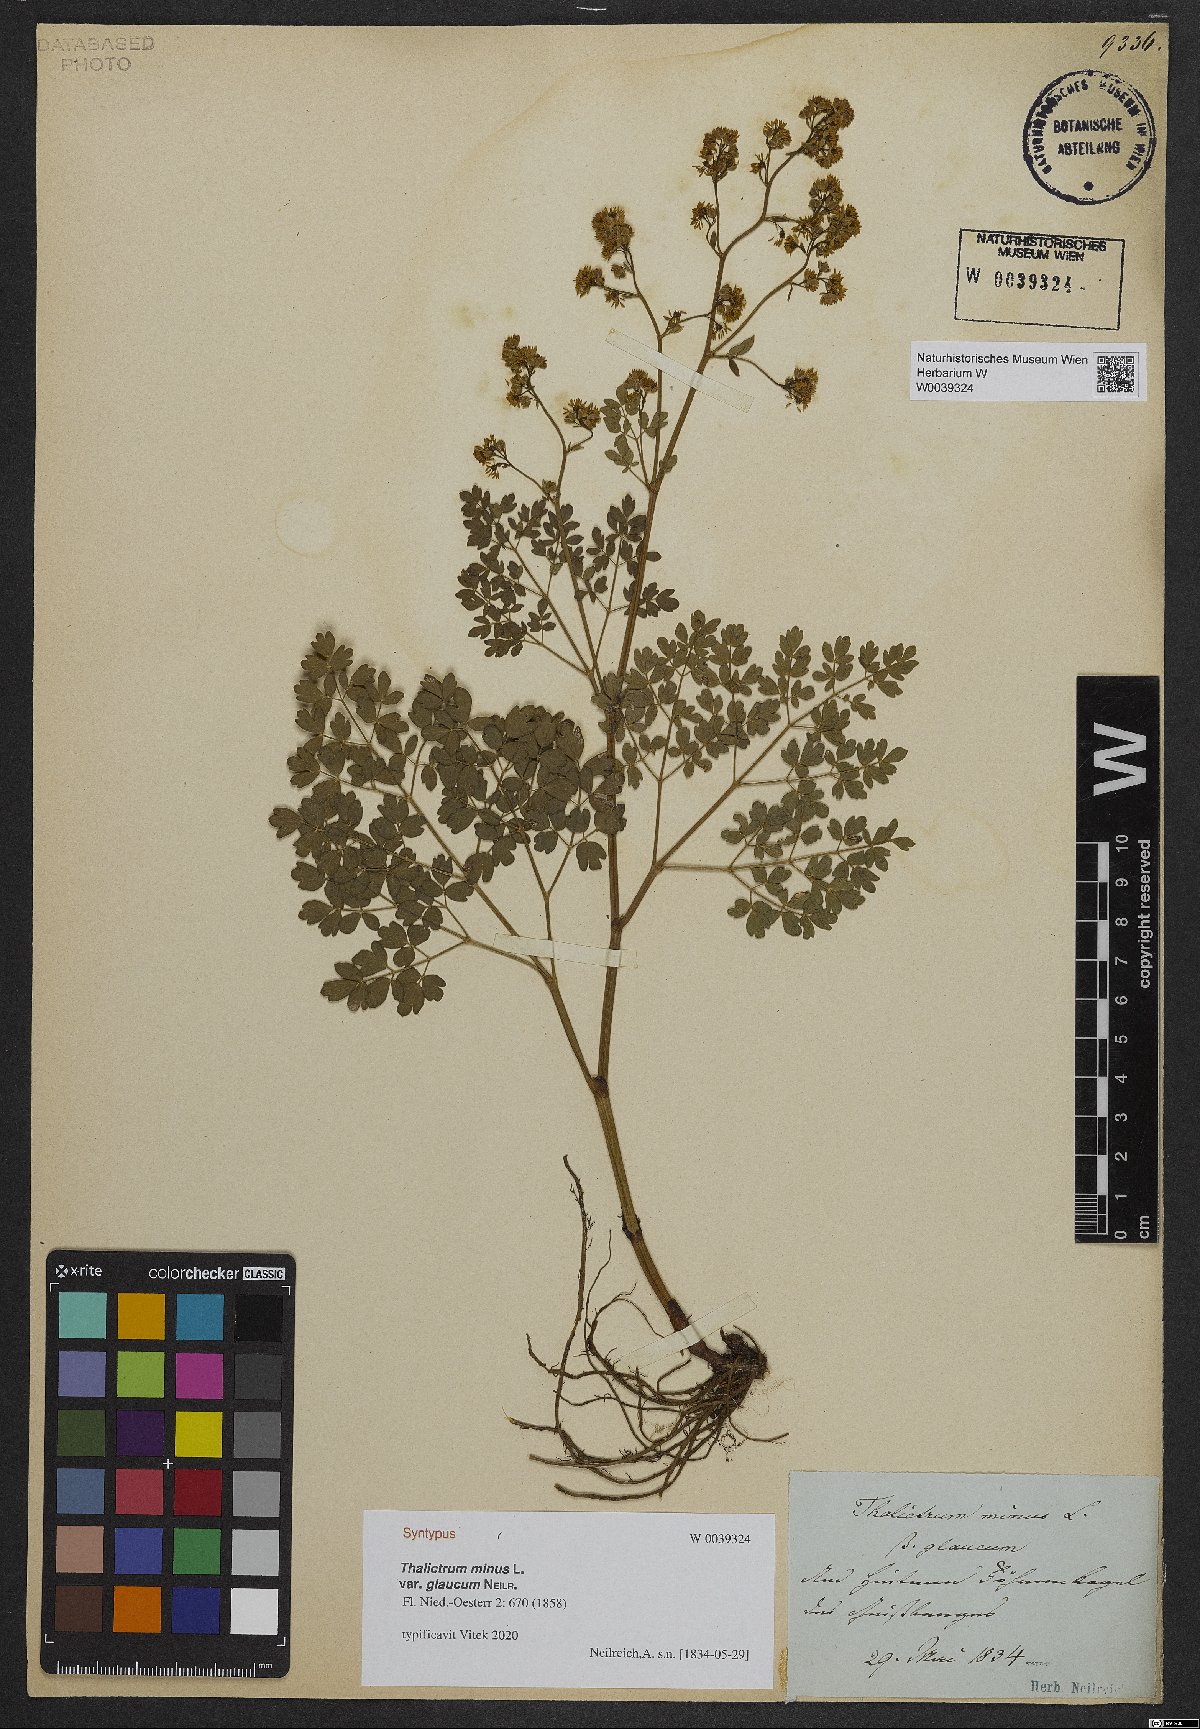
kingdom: Plantae
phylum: Tracheophyta
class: Magnoliopsida
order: Ranunculales
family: Ranunculaceae
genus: Thalictrum
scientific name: Thalictrum minus
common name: Lesser meadow-rue
